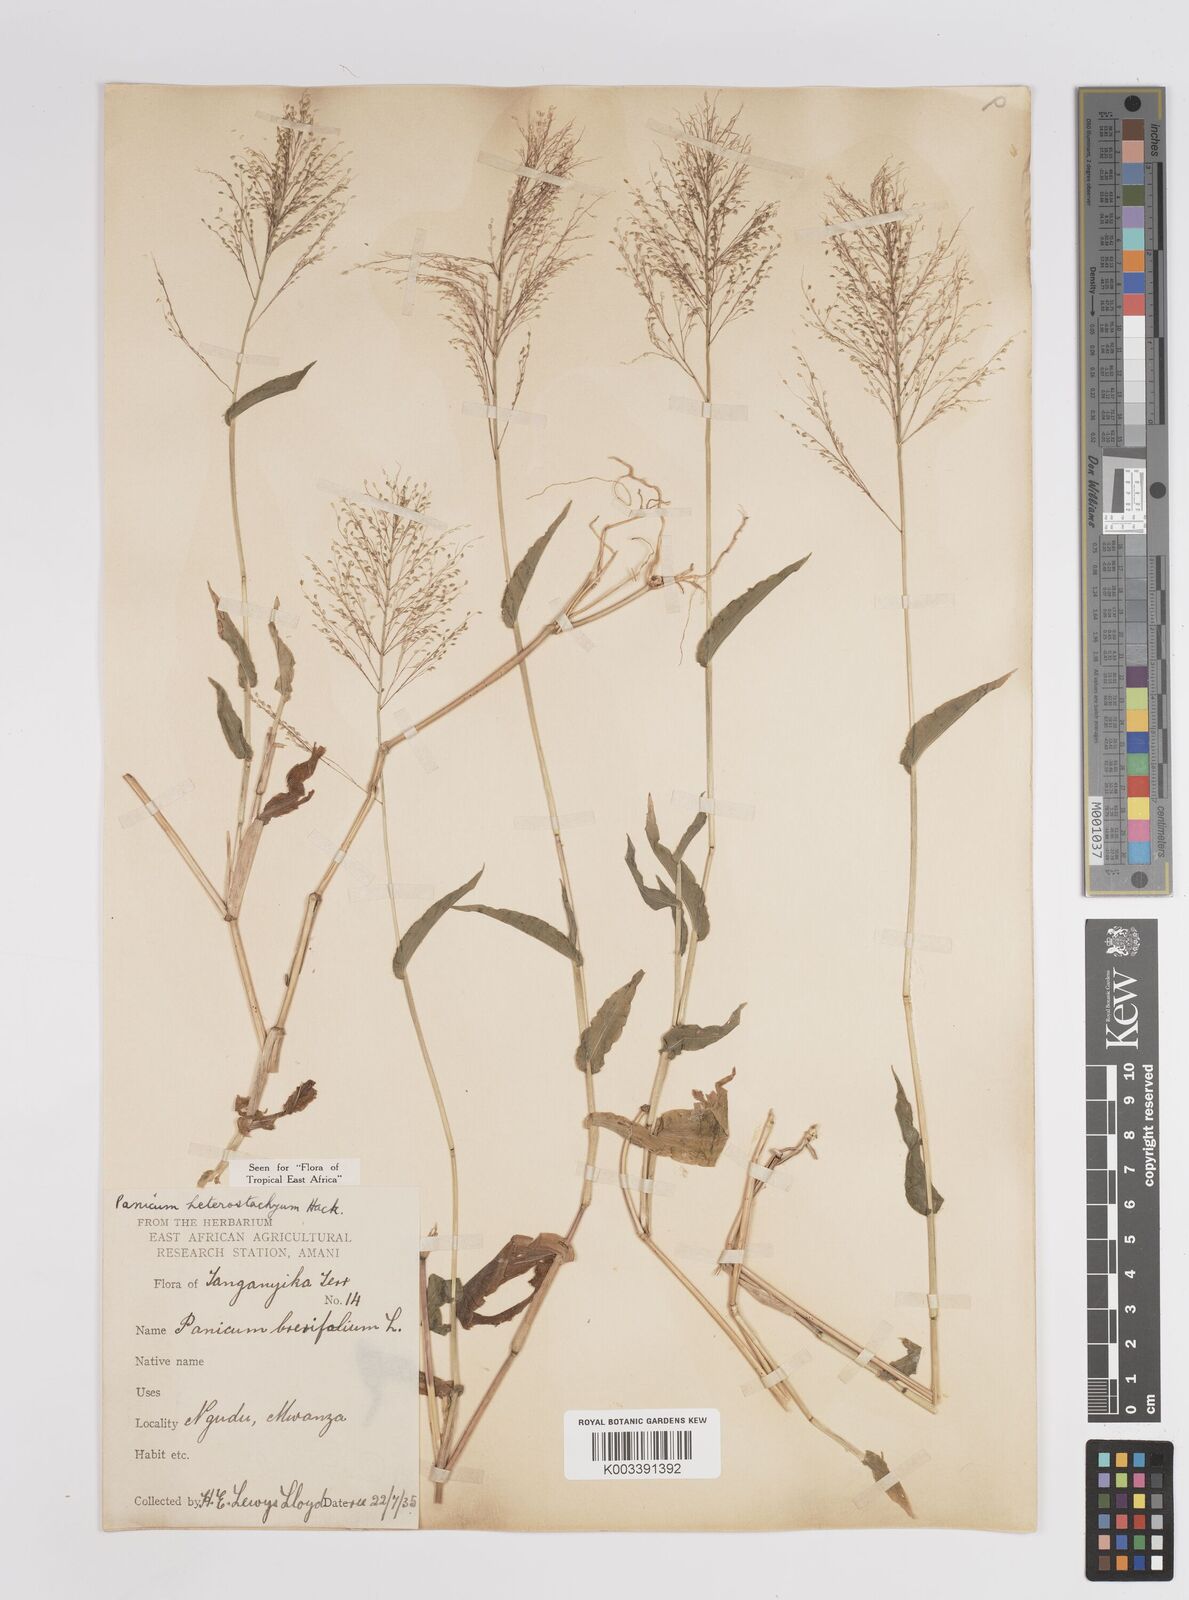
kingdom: Plantae
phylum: Tracheophyta
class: Liliopsida
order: Poales
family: Poaceae
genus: Panicum
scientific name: Panicum hirtum
